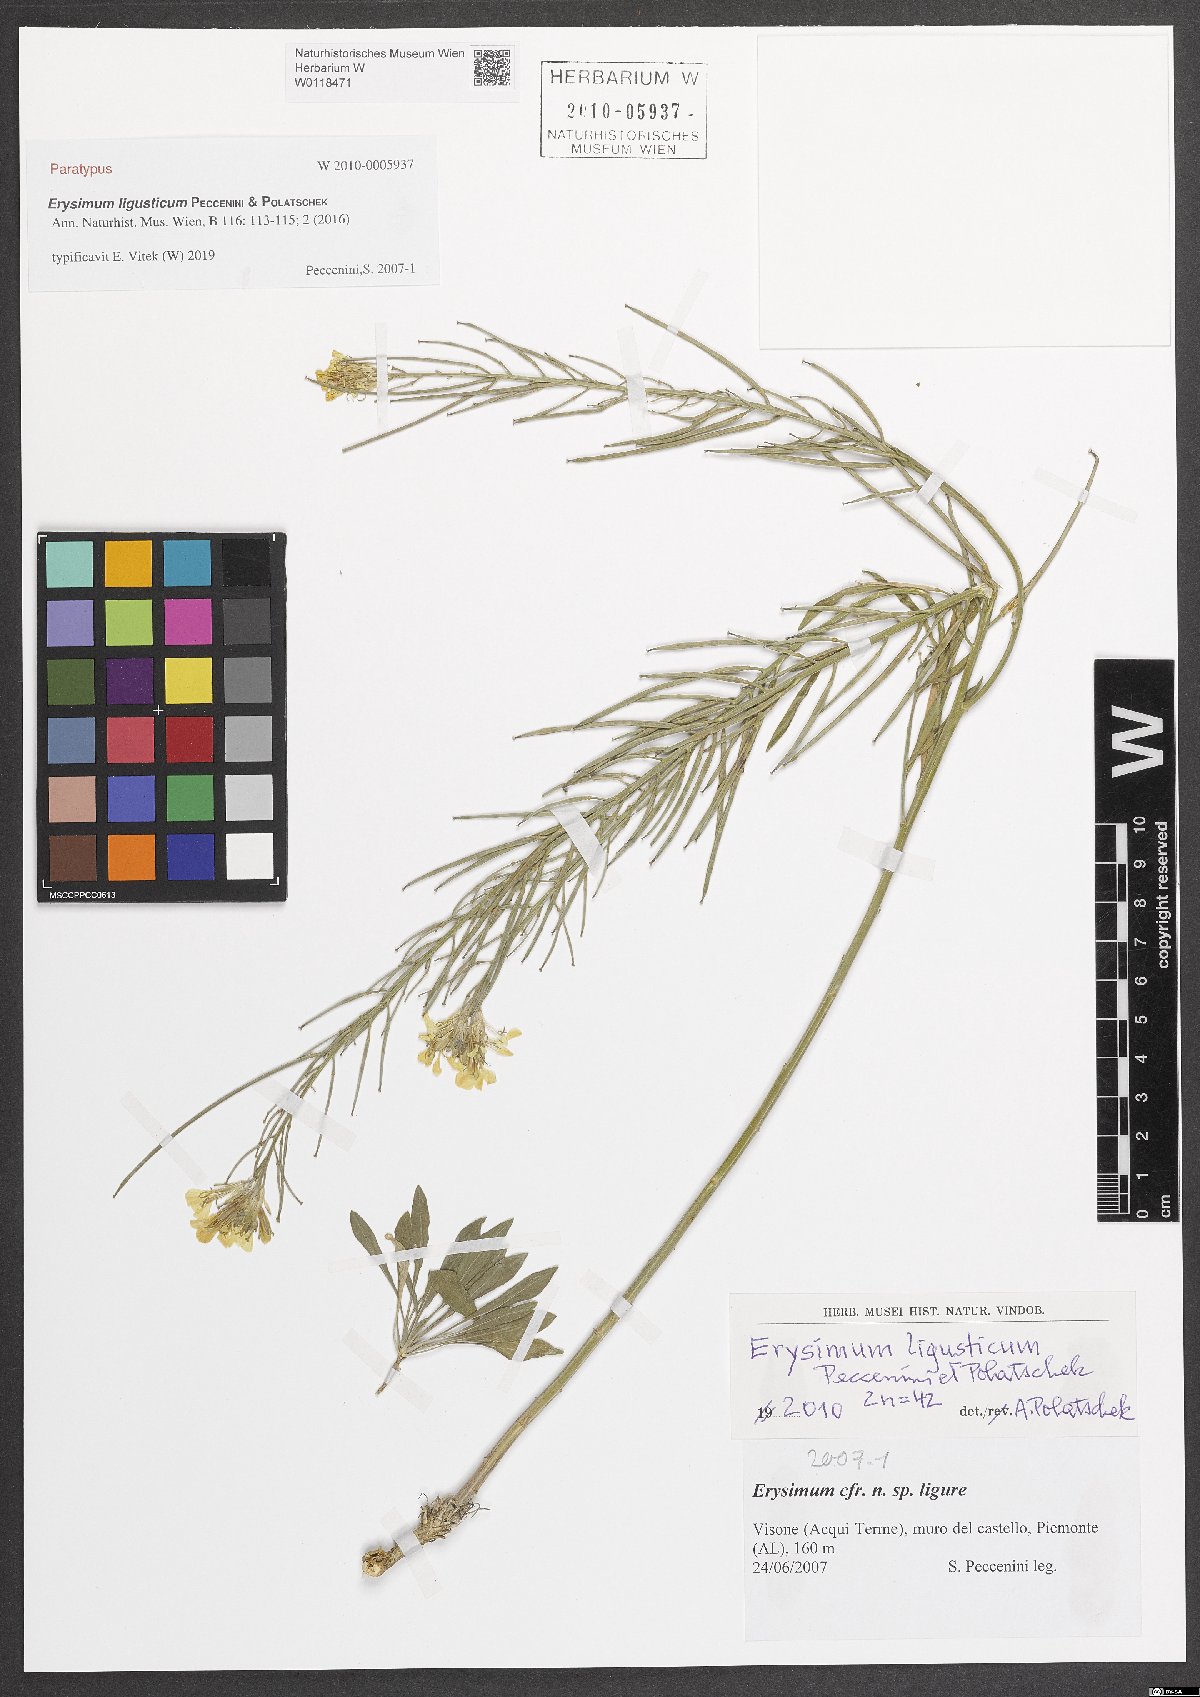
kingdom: Plantae
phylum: Tracheophyta
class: Magnoliopsida
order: Brassicales
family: Brassicaceae
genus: Erysimum
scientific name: Erysimum ligusticum
